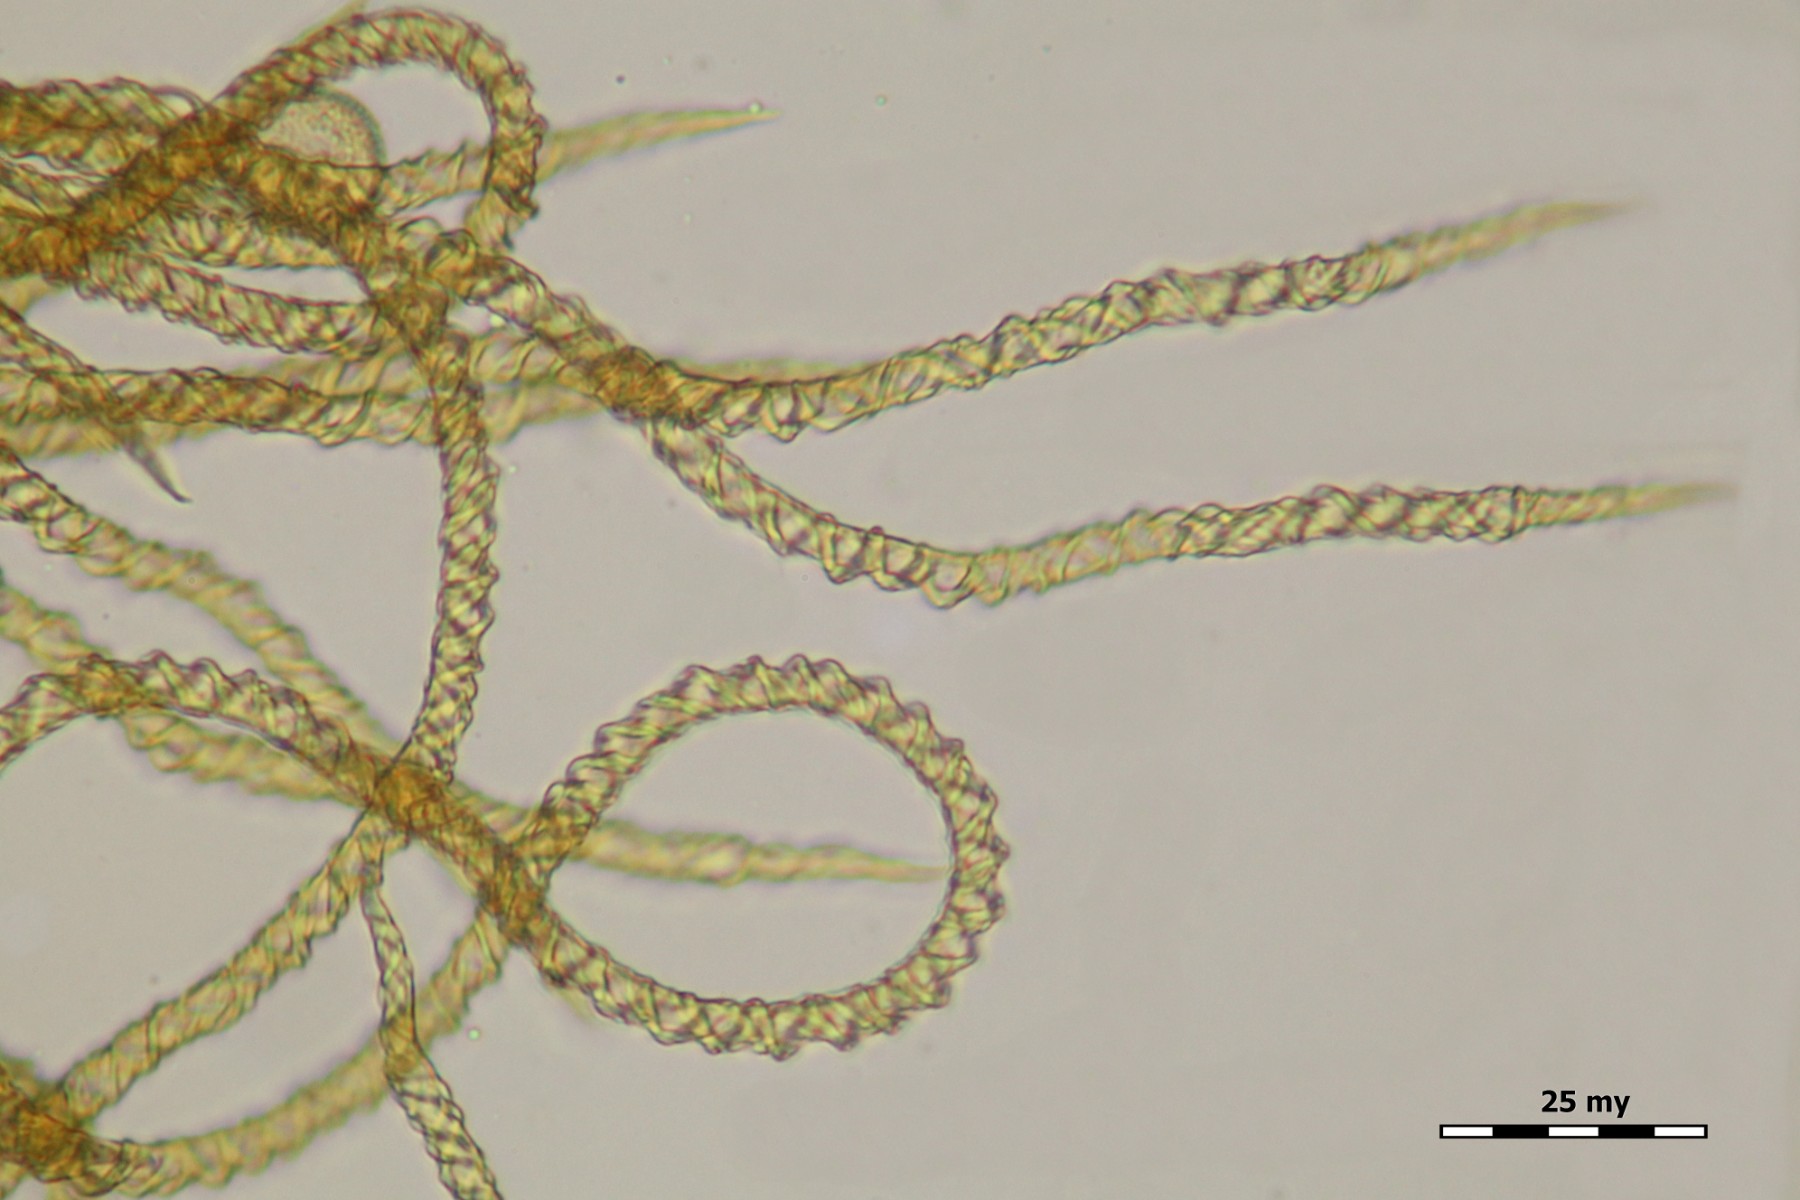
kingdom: Protozoa
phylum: Mycetozoa
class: Myxomycetes
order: Trichiales
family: Trichiaceae
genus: Trichia
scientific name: Trichia varia
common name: foranderlig hårbold
